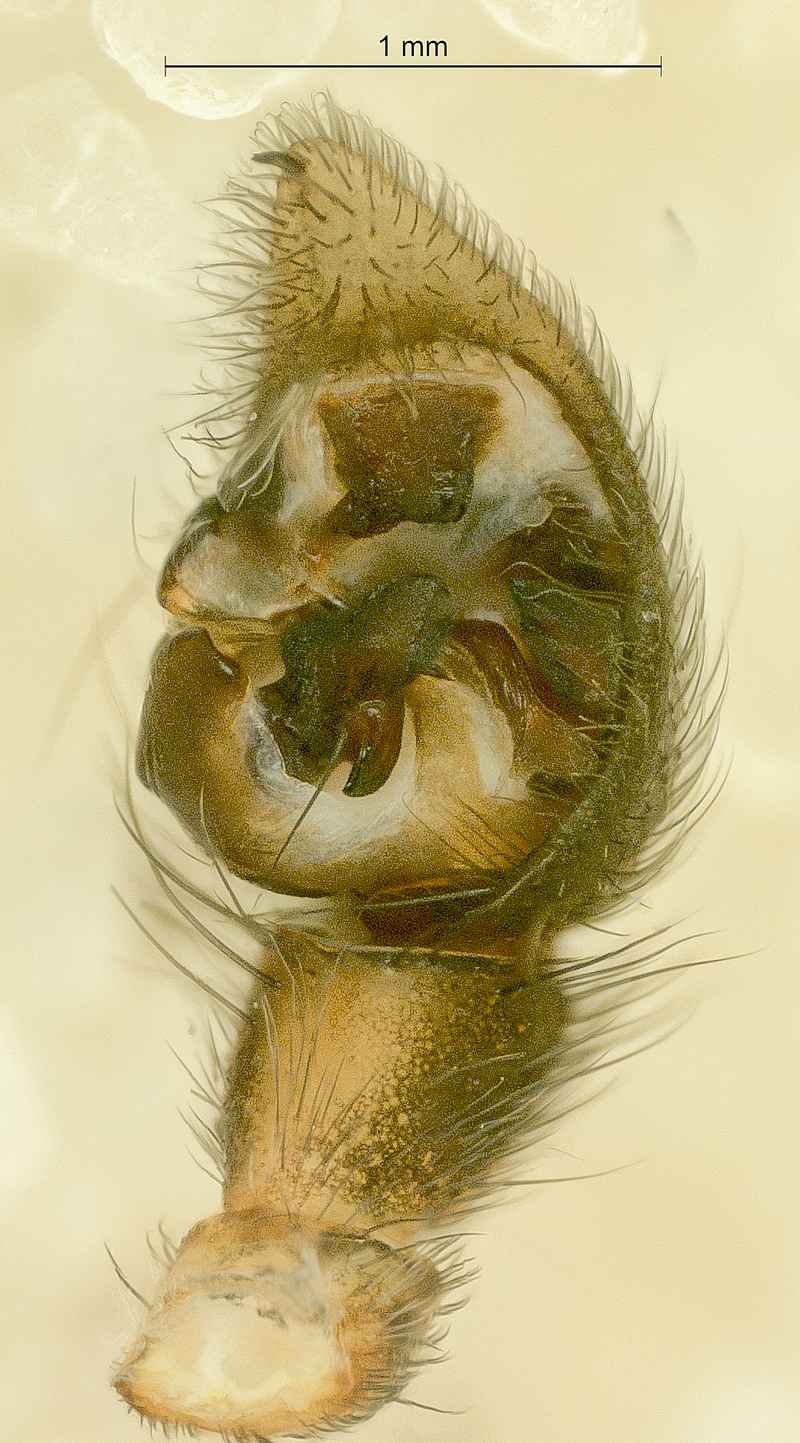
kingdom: Animalia
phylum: Arthropoda
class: Arachnida
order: Araneae
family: Lycosidae
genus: Pardosa
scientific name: Pardosa palustris
